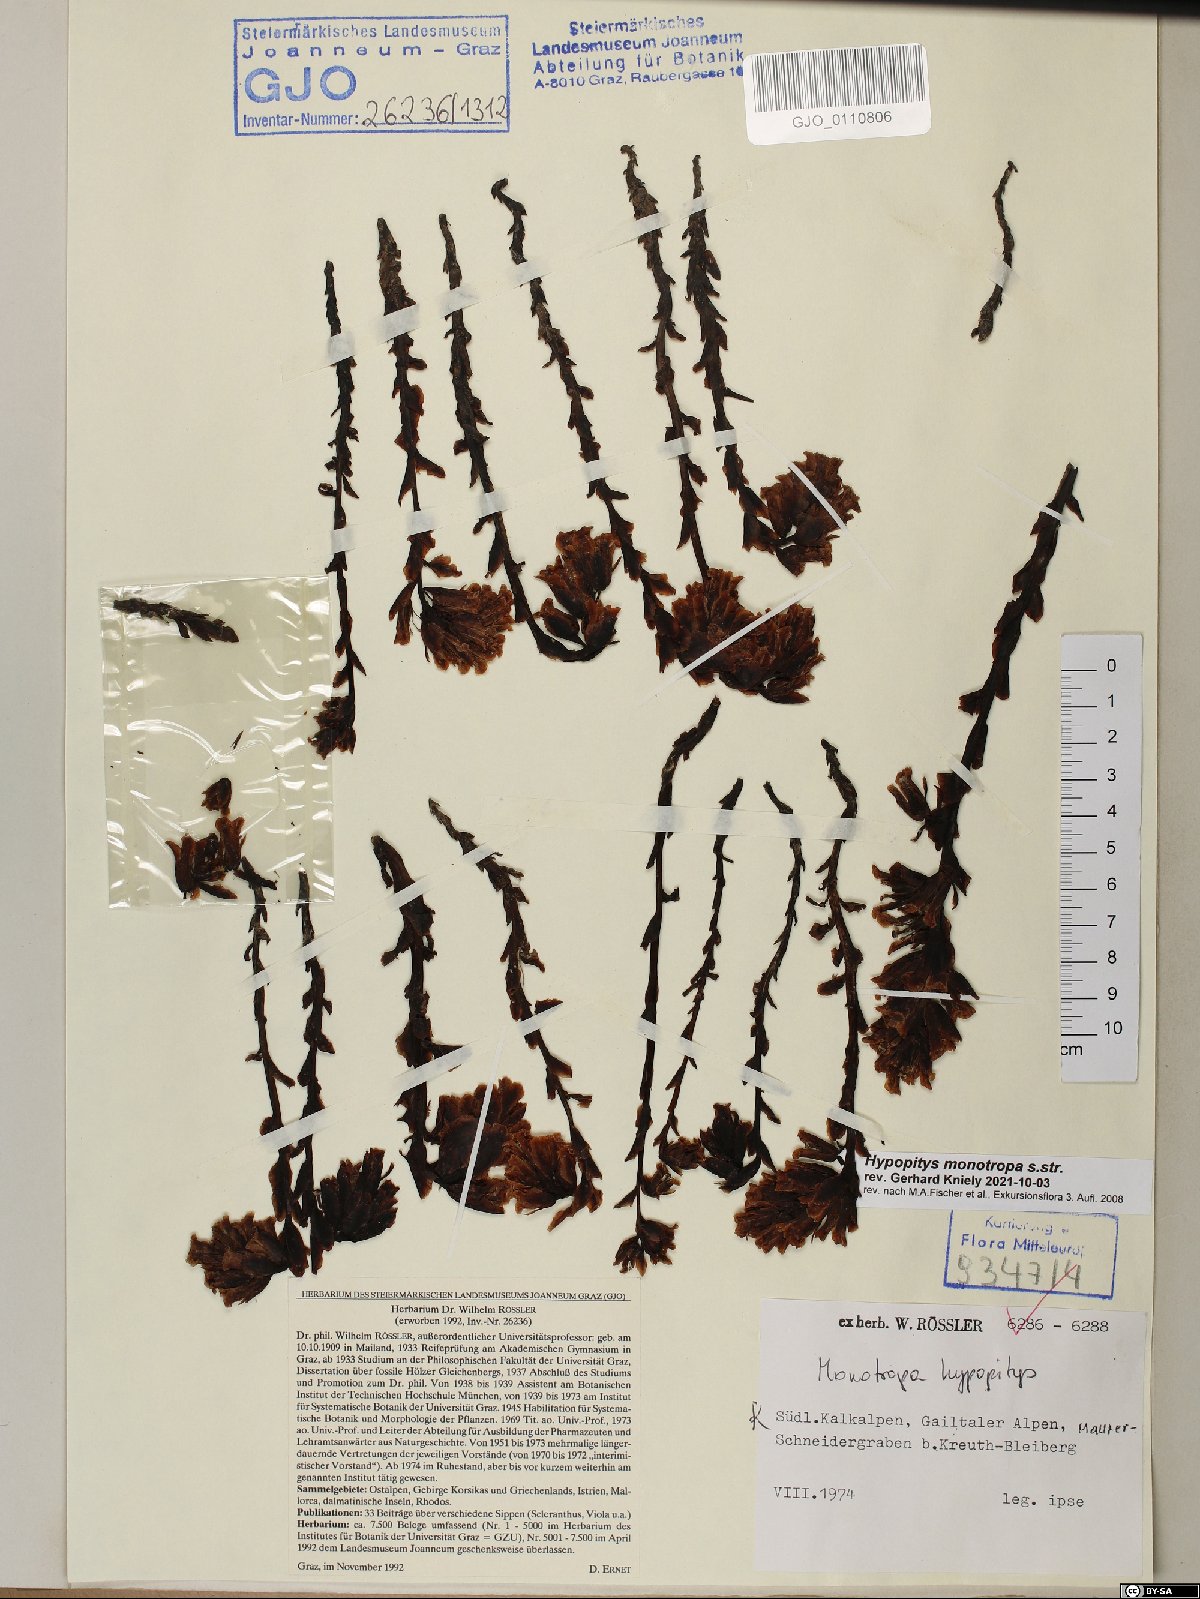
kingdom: Plantae
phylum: Tracheophyta
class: Magnoliopsida
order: Ericales
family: Ericaceae
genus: Hypopitys
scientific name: Hypopitys monotropa
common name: Yellow bird's-nest
